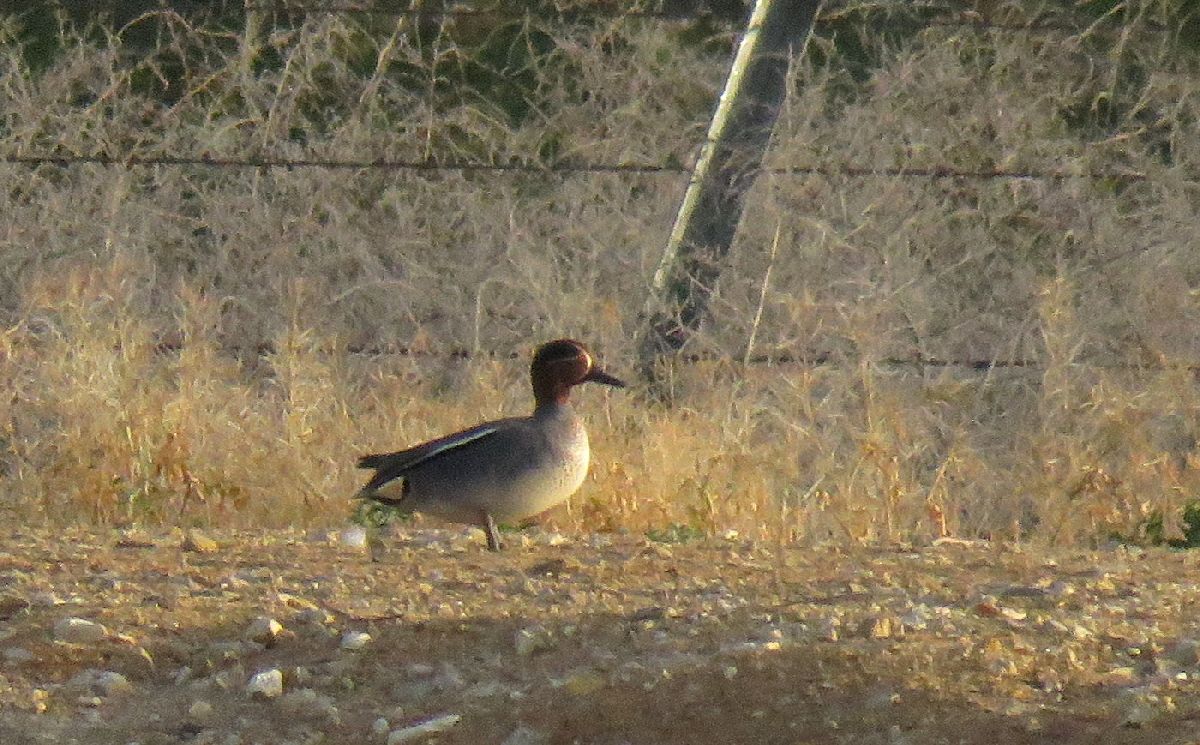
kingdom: Animalia
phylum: Chordata
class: Aves
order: Anseriformes
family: Anatidae
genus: Anas
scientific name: Anas crecca
